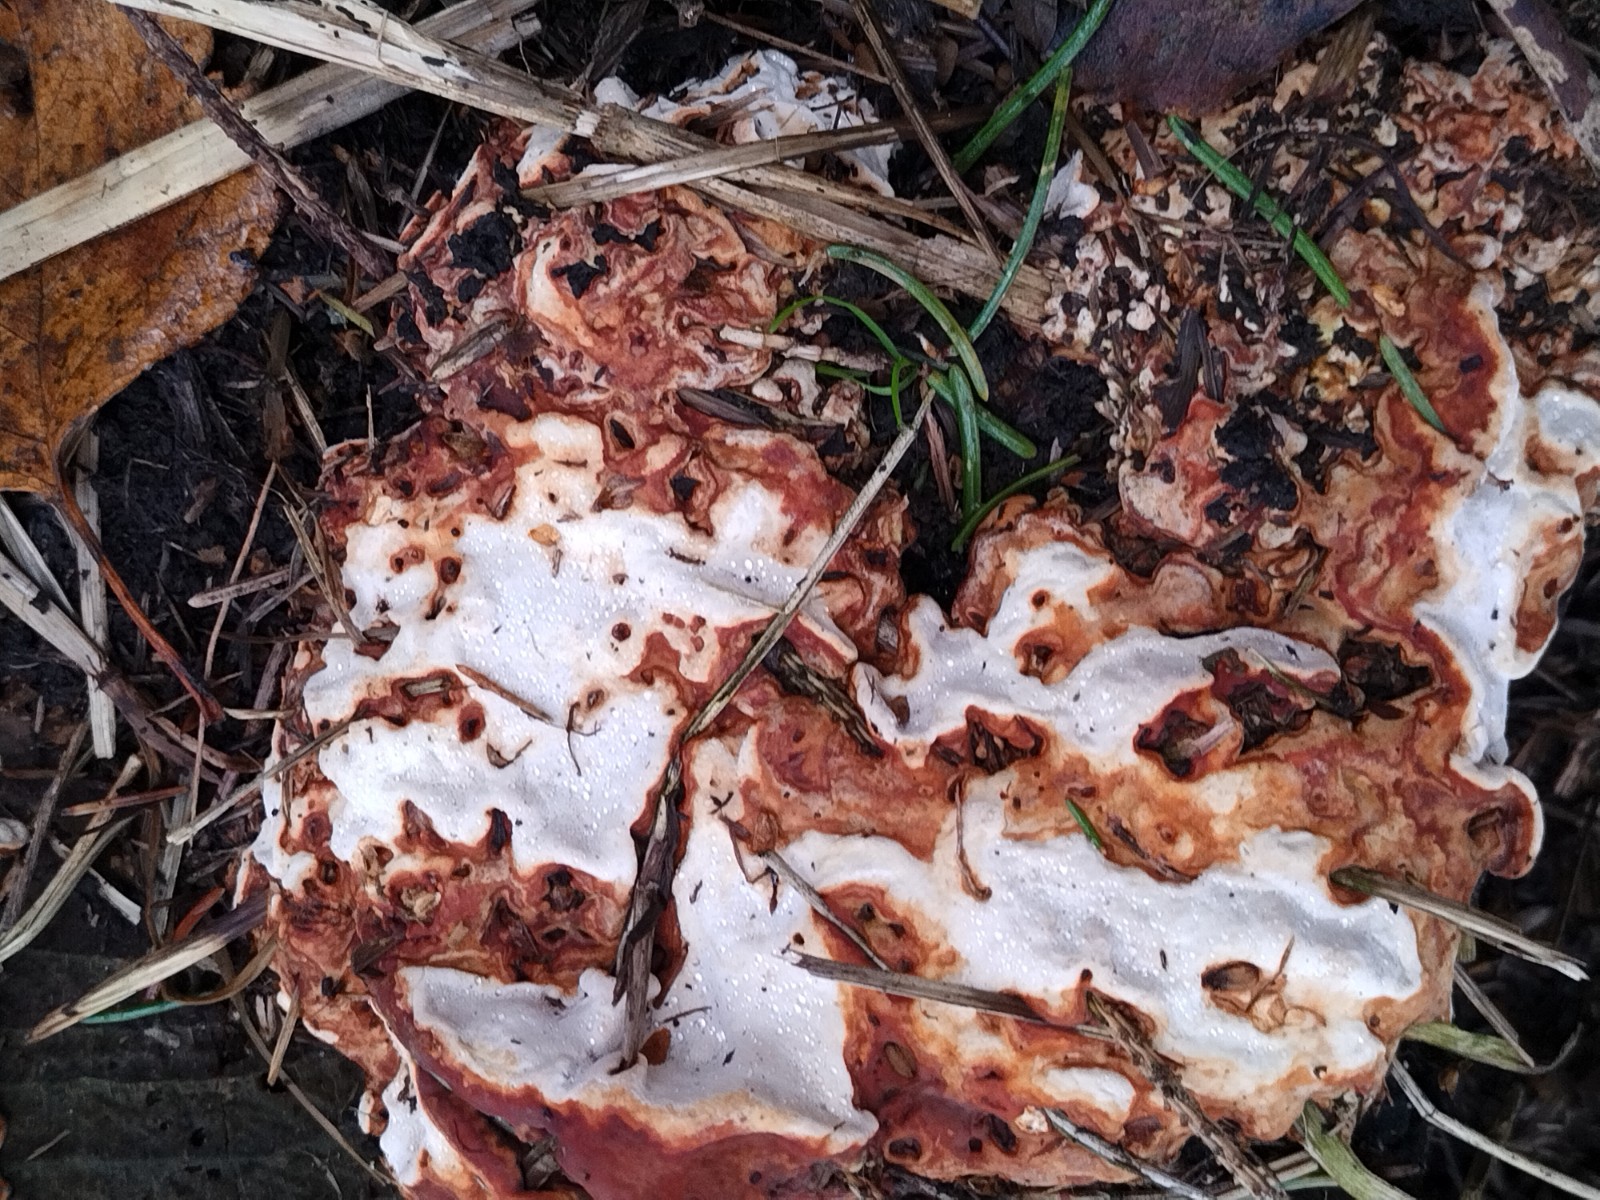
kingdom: Fungi
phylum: Basidiomycota
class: Agaricomycetes
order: Russulales
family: Bondarzewiaceae
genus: Heterobasidion
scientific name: Heterobasidion annosum
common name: almindelig rodfordærver
